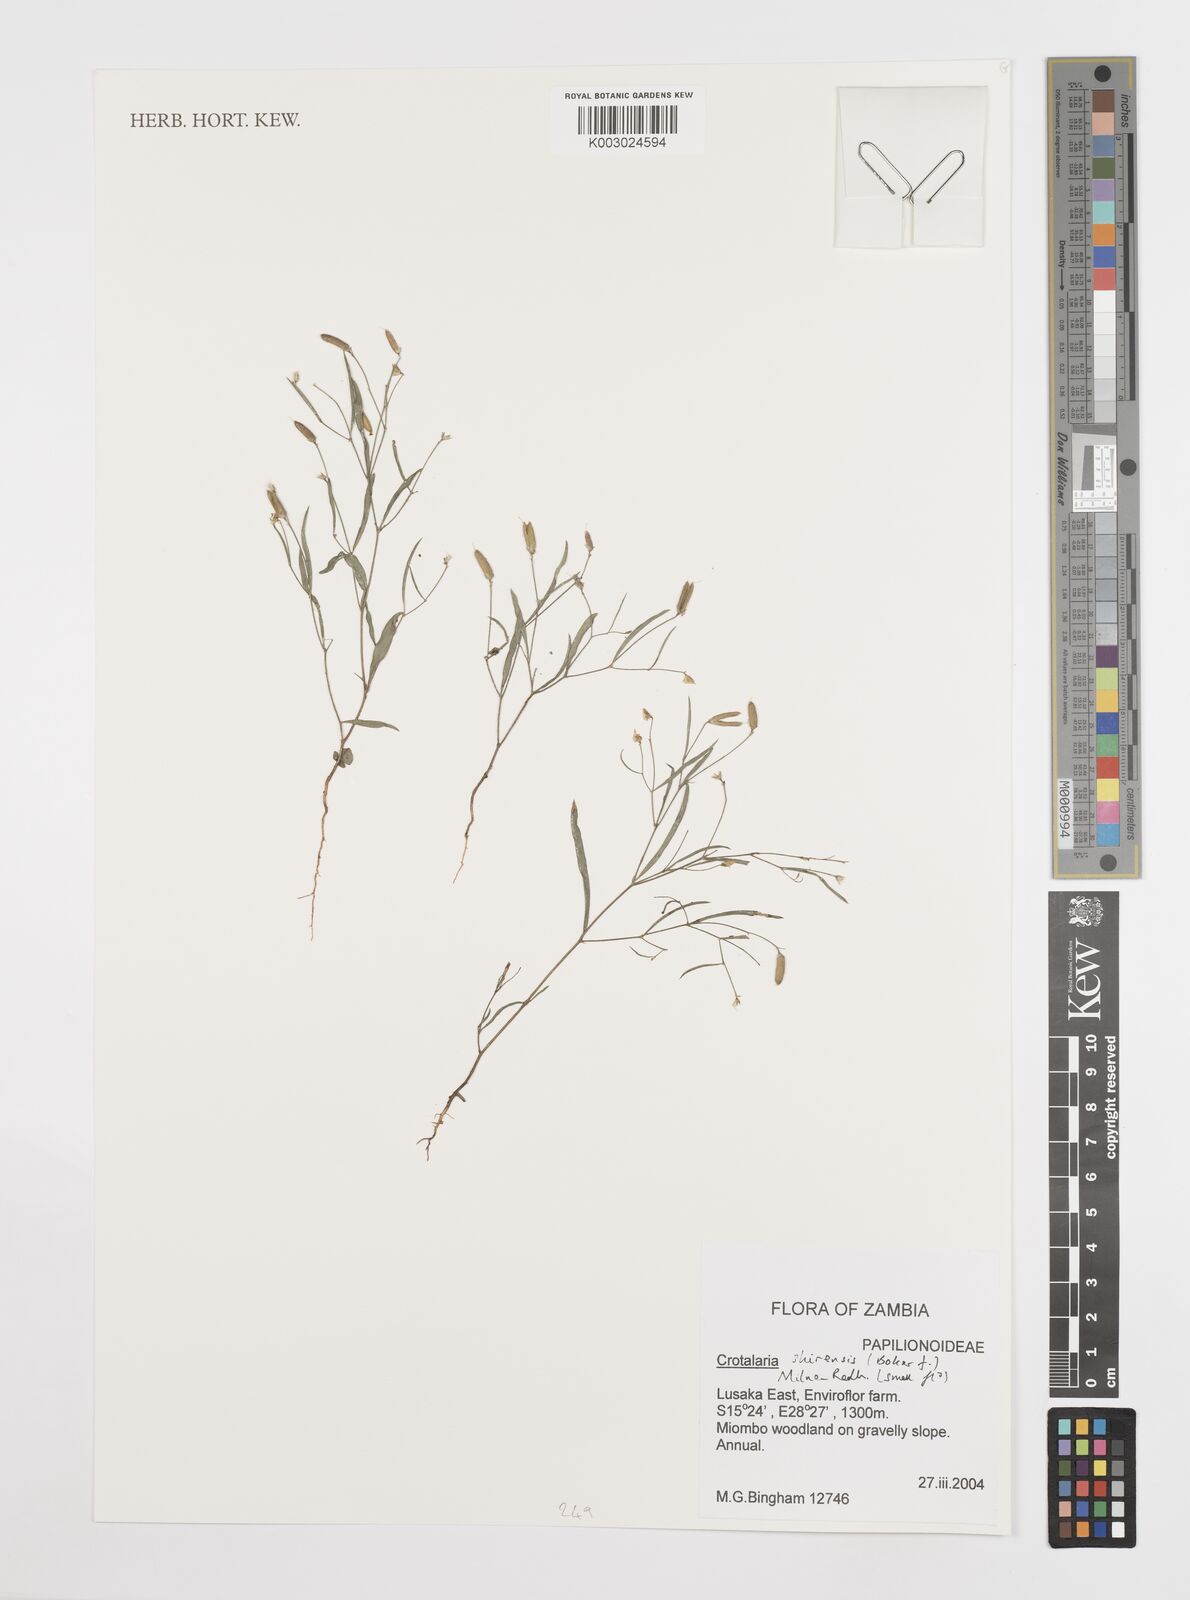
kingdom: Plantae
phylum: Tracheophyta
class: Magnoliopsida
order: Fabales
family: Fabaceae
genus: Crotalaria
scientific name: Crotalaria shirensis
